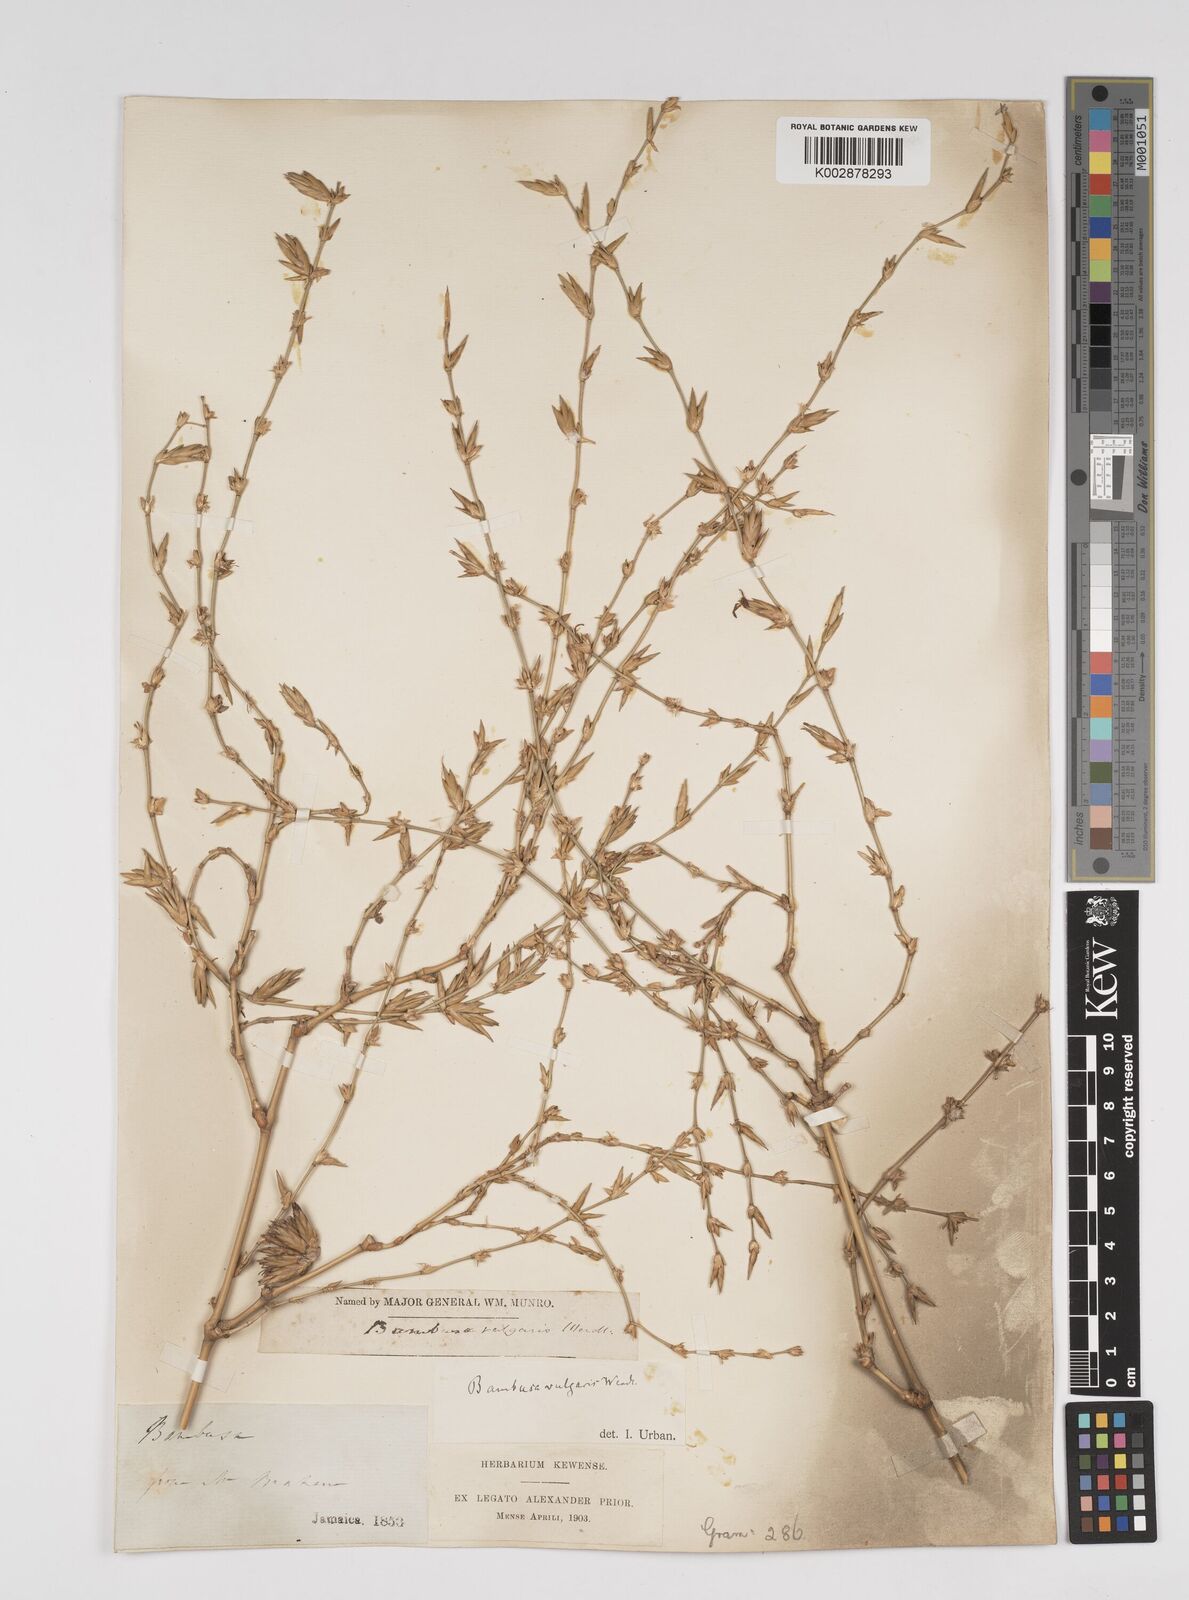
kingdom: Plantae
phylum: Tracheophyta
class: Liliopsida
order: Poales
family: Poaceae
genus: Bambusa
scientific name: Bambusa vulgaris
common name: Common bamboo
